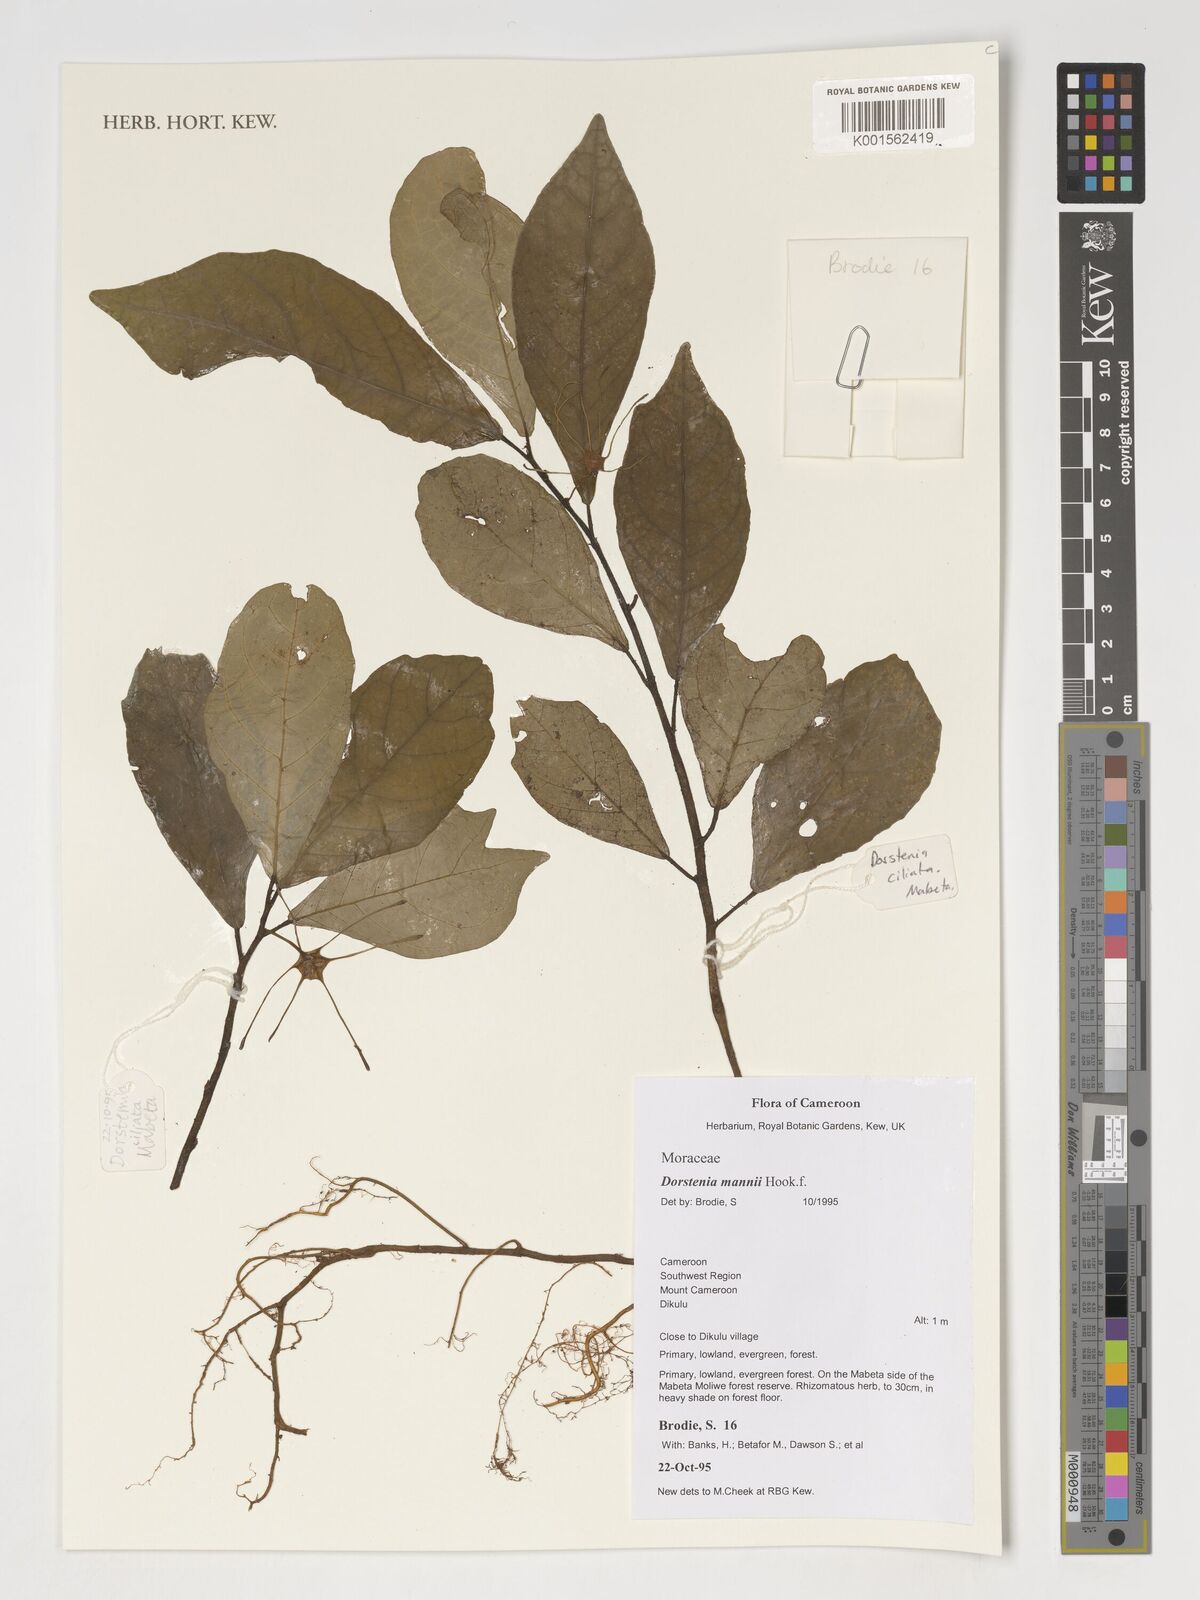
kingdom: Plantae
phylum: Tracheophyta
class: Magnoliopsida
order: Rosales
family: Moraceae
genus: Dorstenia
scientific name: Dorstenia mannii
